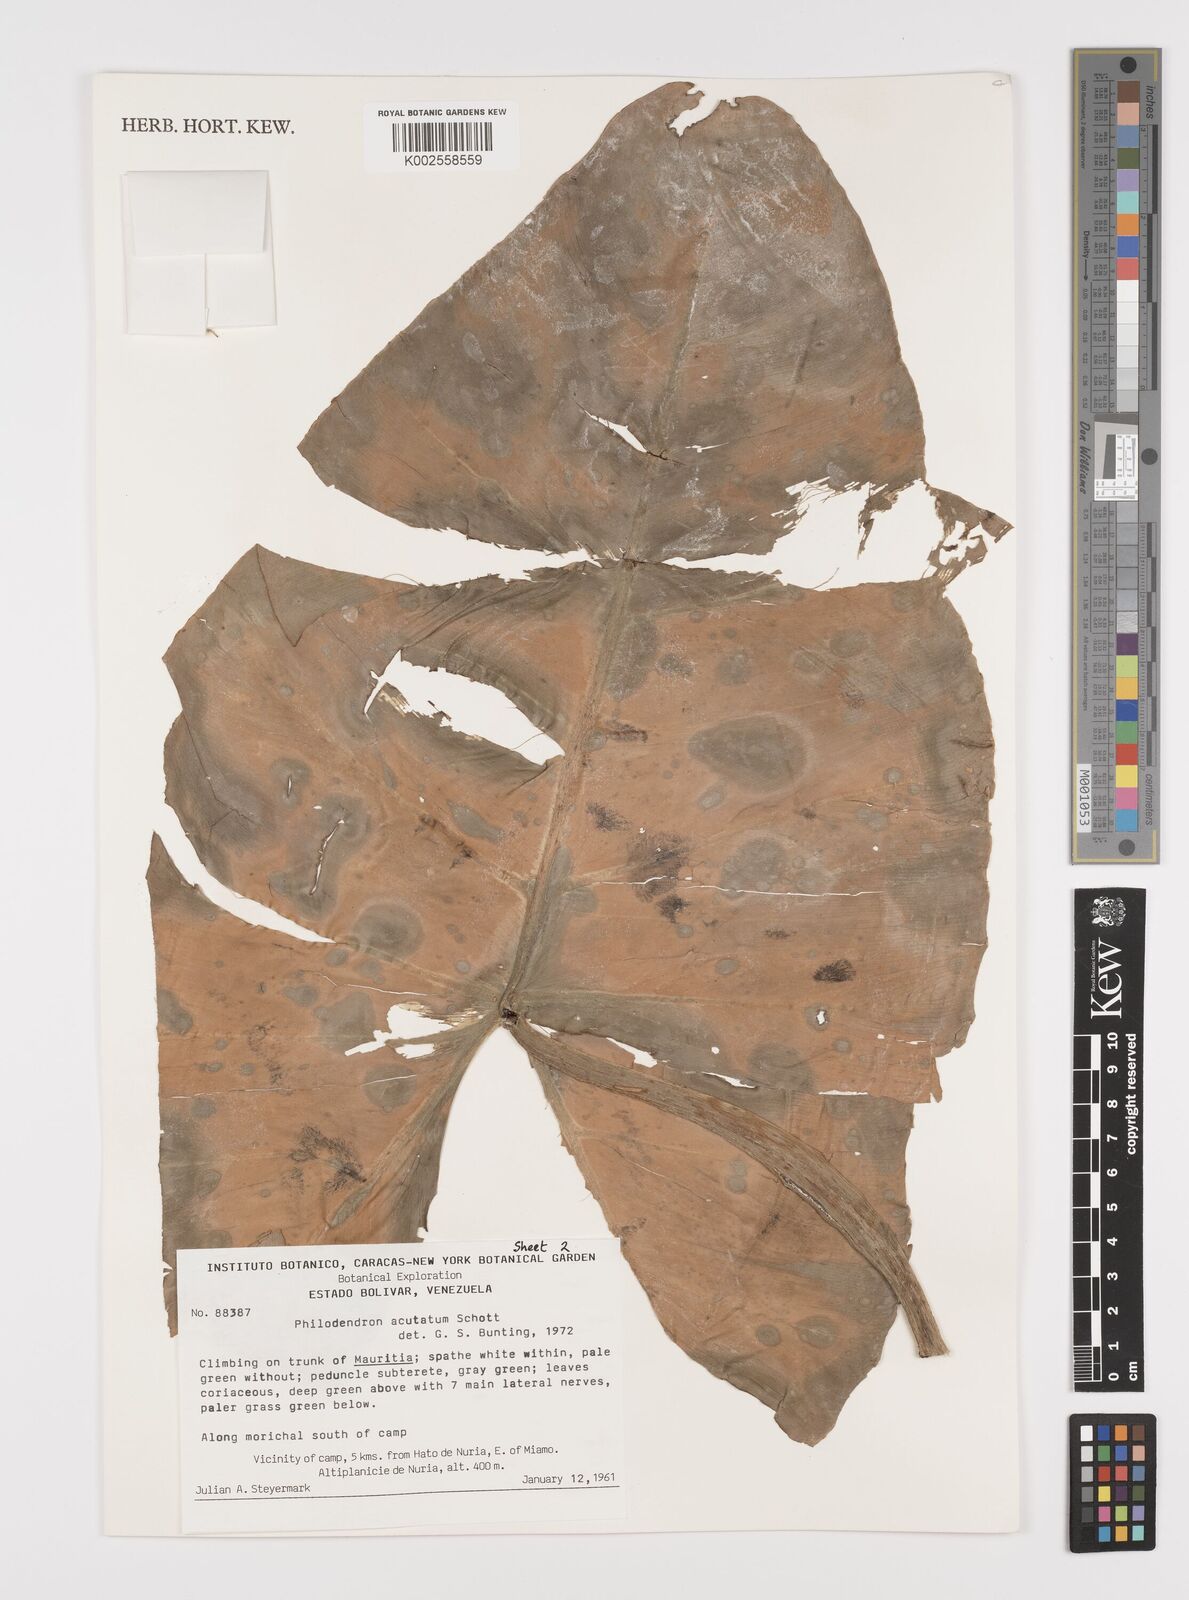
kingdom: Plantae
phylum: Tracheophyta
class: Liliopsida
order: Alismatales
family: Araceae
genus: Philodendron
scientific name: Philodendron quinquenervium
